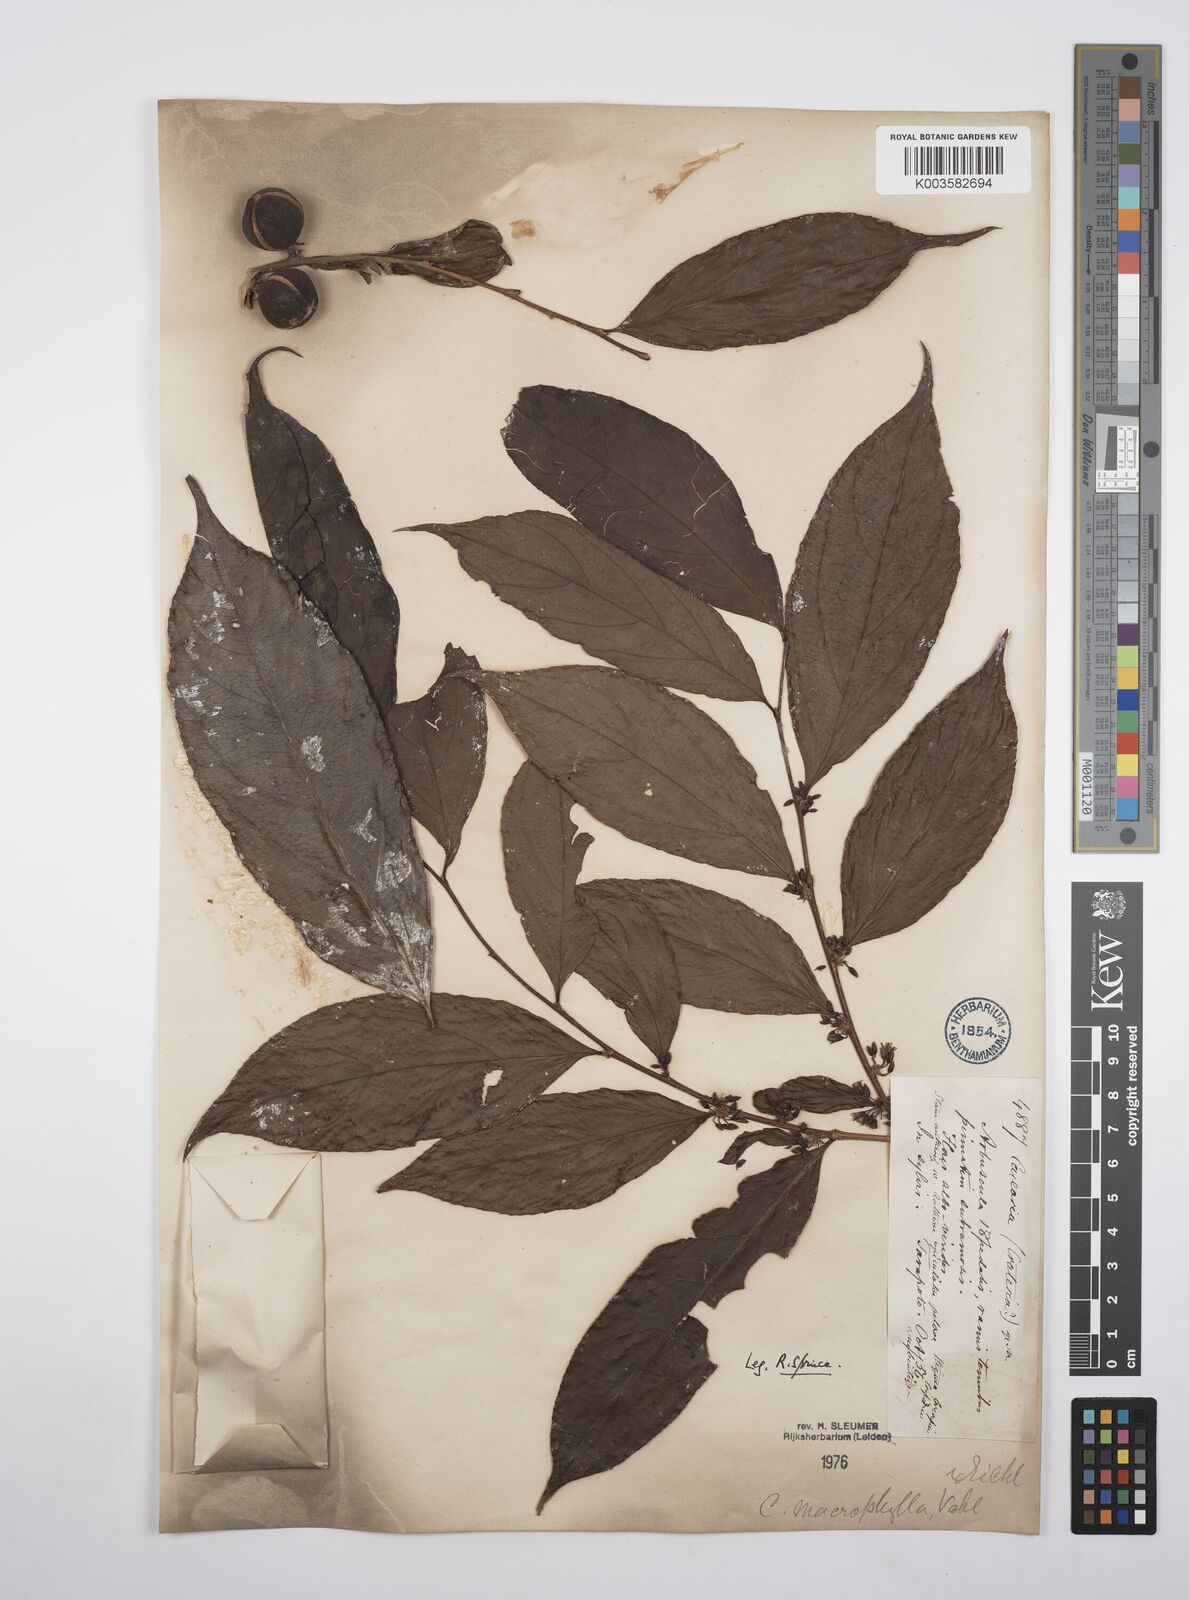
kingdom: Plantae
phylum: Tracheophyta
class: Magnoliopsida
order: Malpighiales
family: Salicaceae
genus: Casearia
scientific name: Casearia pitumba
